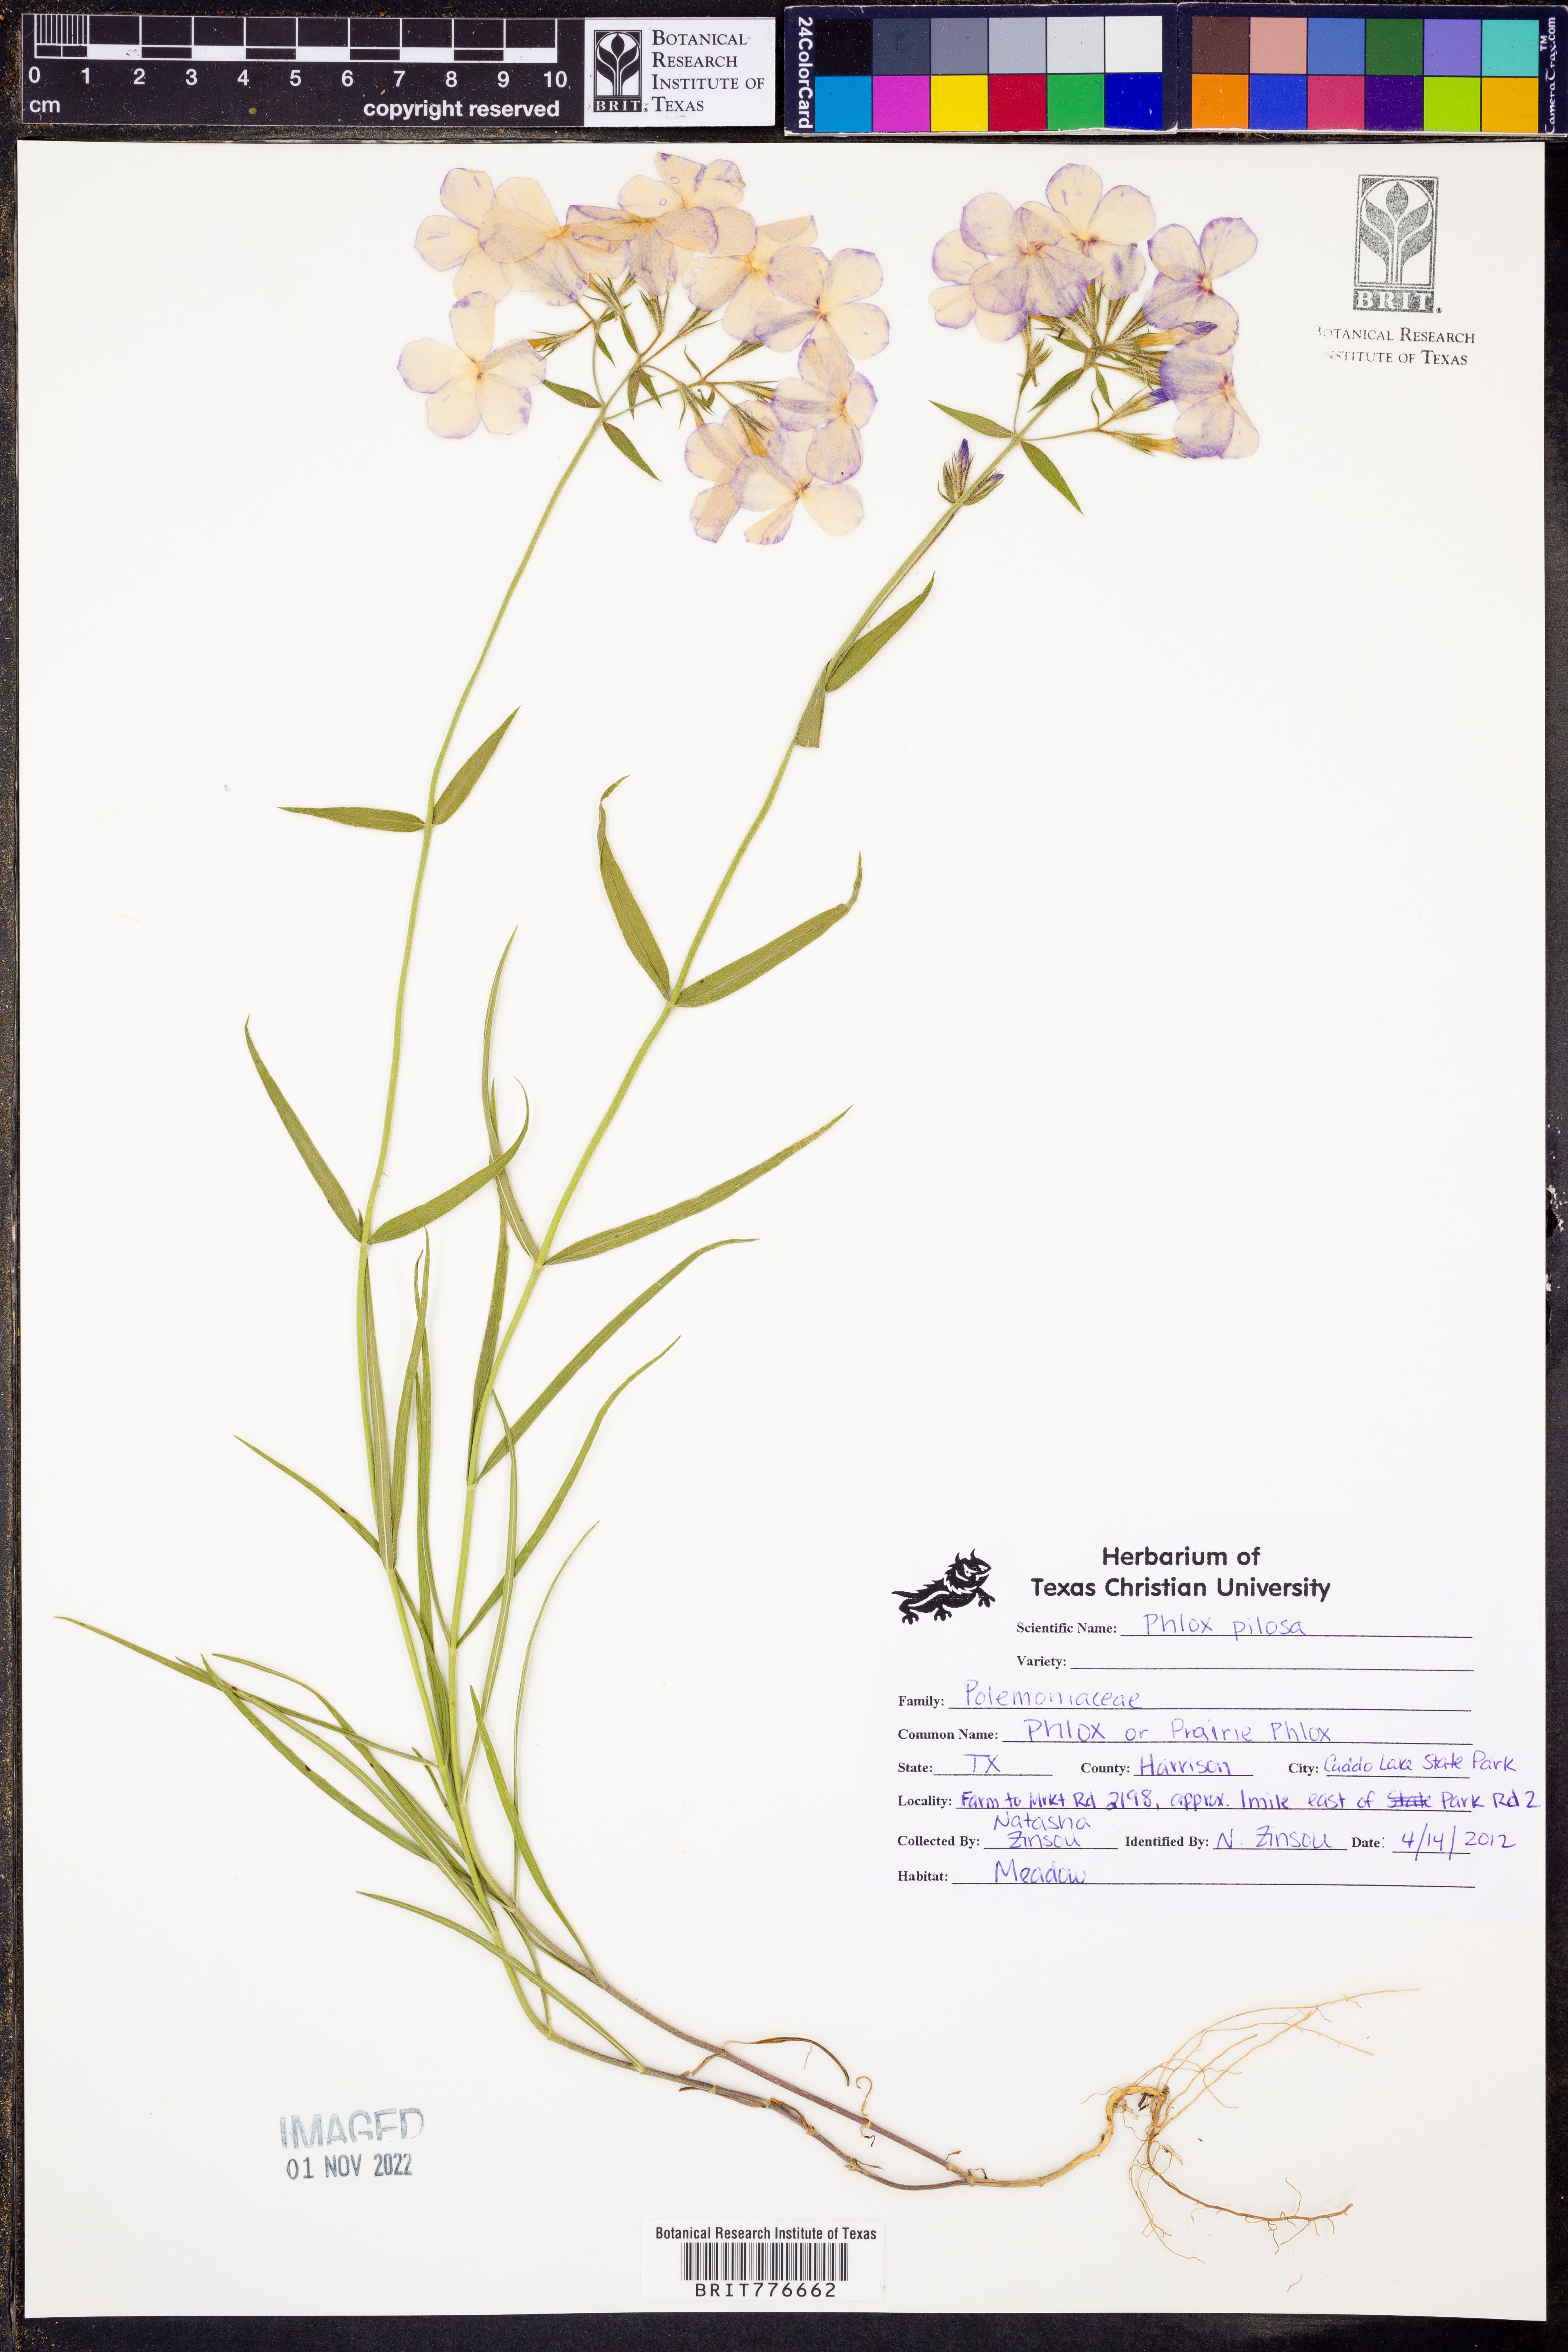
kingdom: Plantae
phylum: Tracheophyta
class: Magnoliopsida
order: Ericales
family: Polemoniaceae
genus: Phlox
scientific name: Phlox pilosa
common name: Prairie phlox
